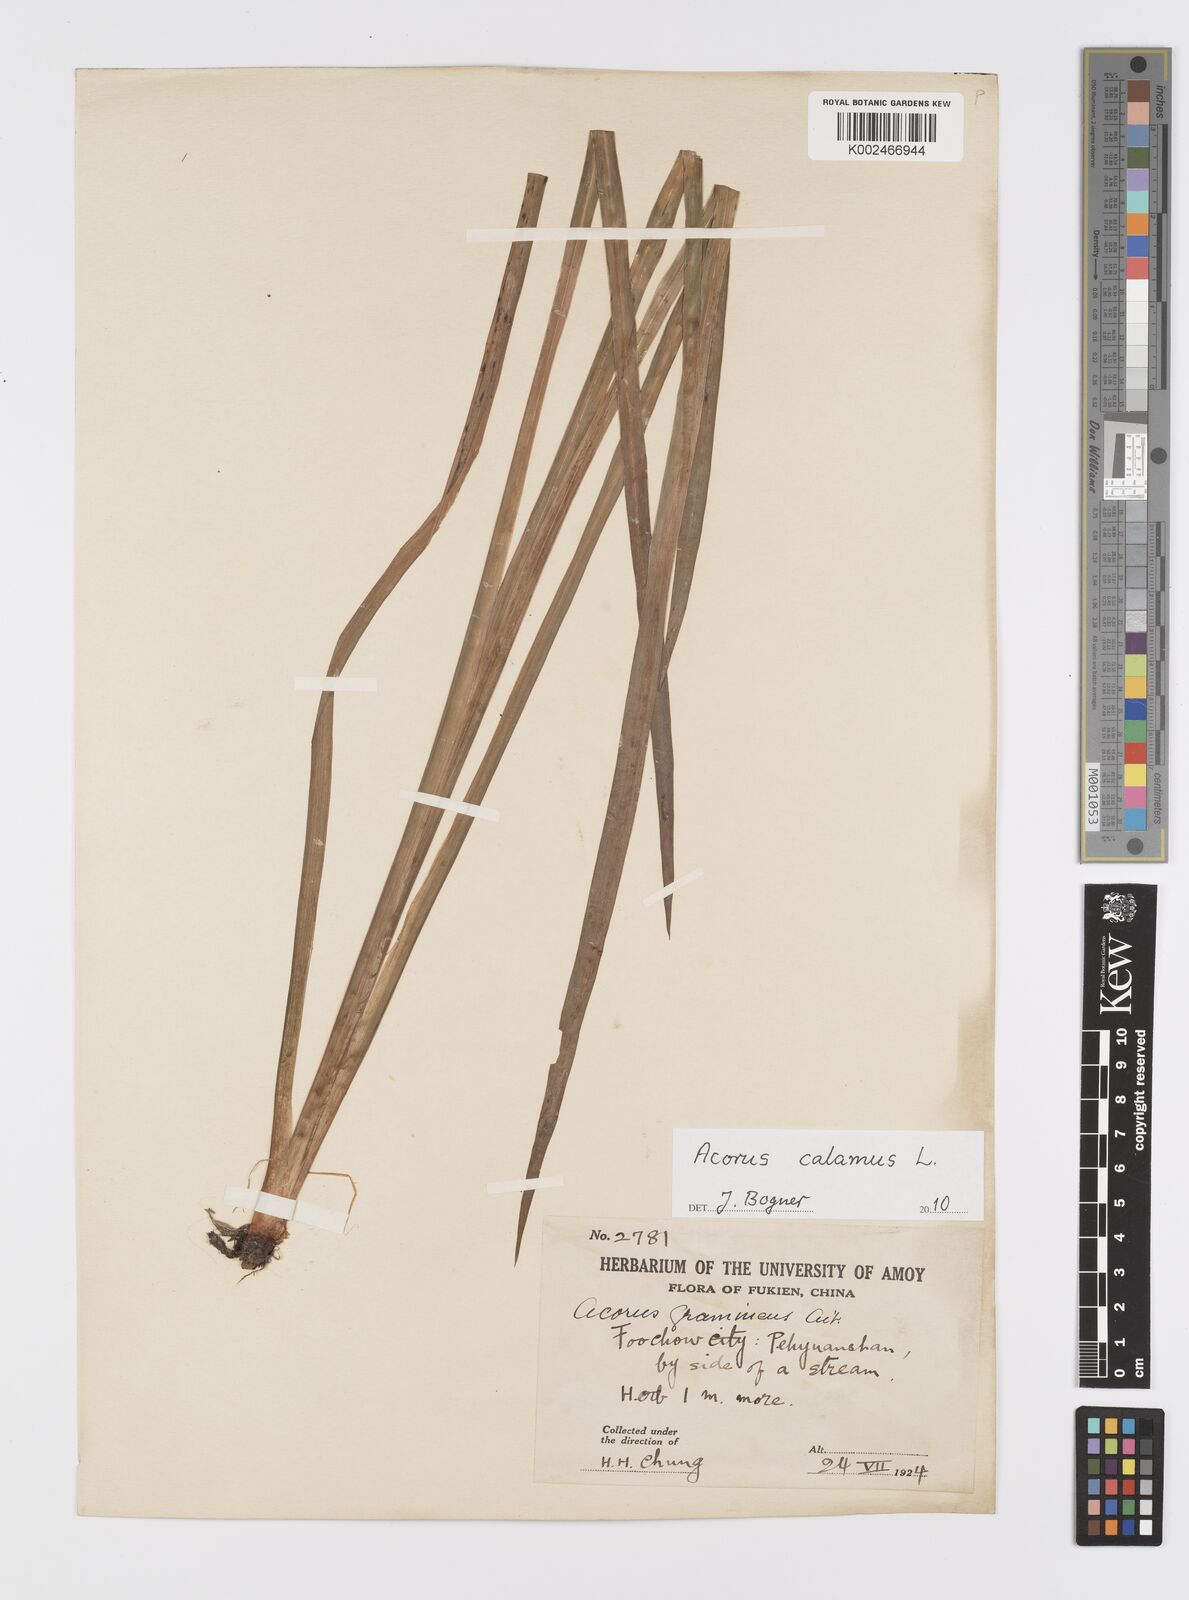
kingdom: Plantae
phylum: Tracheophyta
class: Liliopsida
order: Acorales
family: Acoraceae
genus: Acorus
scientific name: Acorus calamus
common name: Sweet-flag
